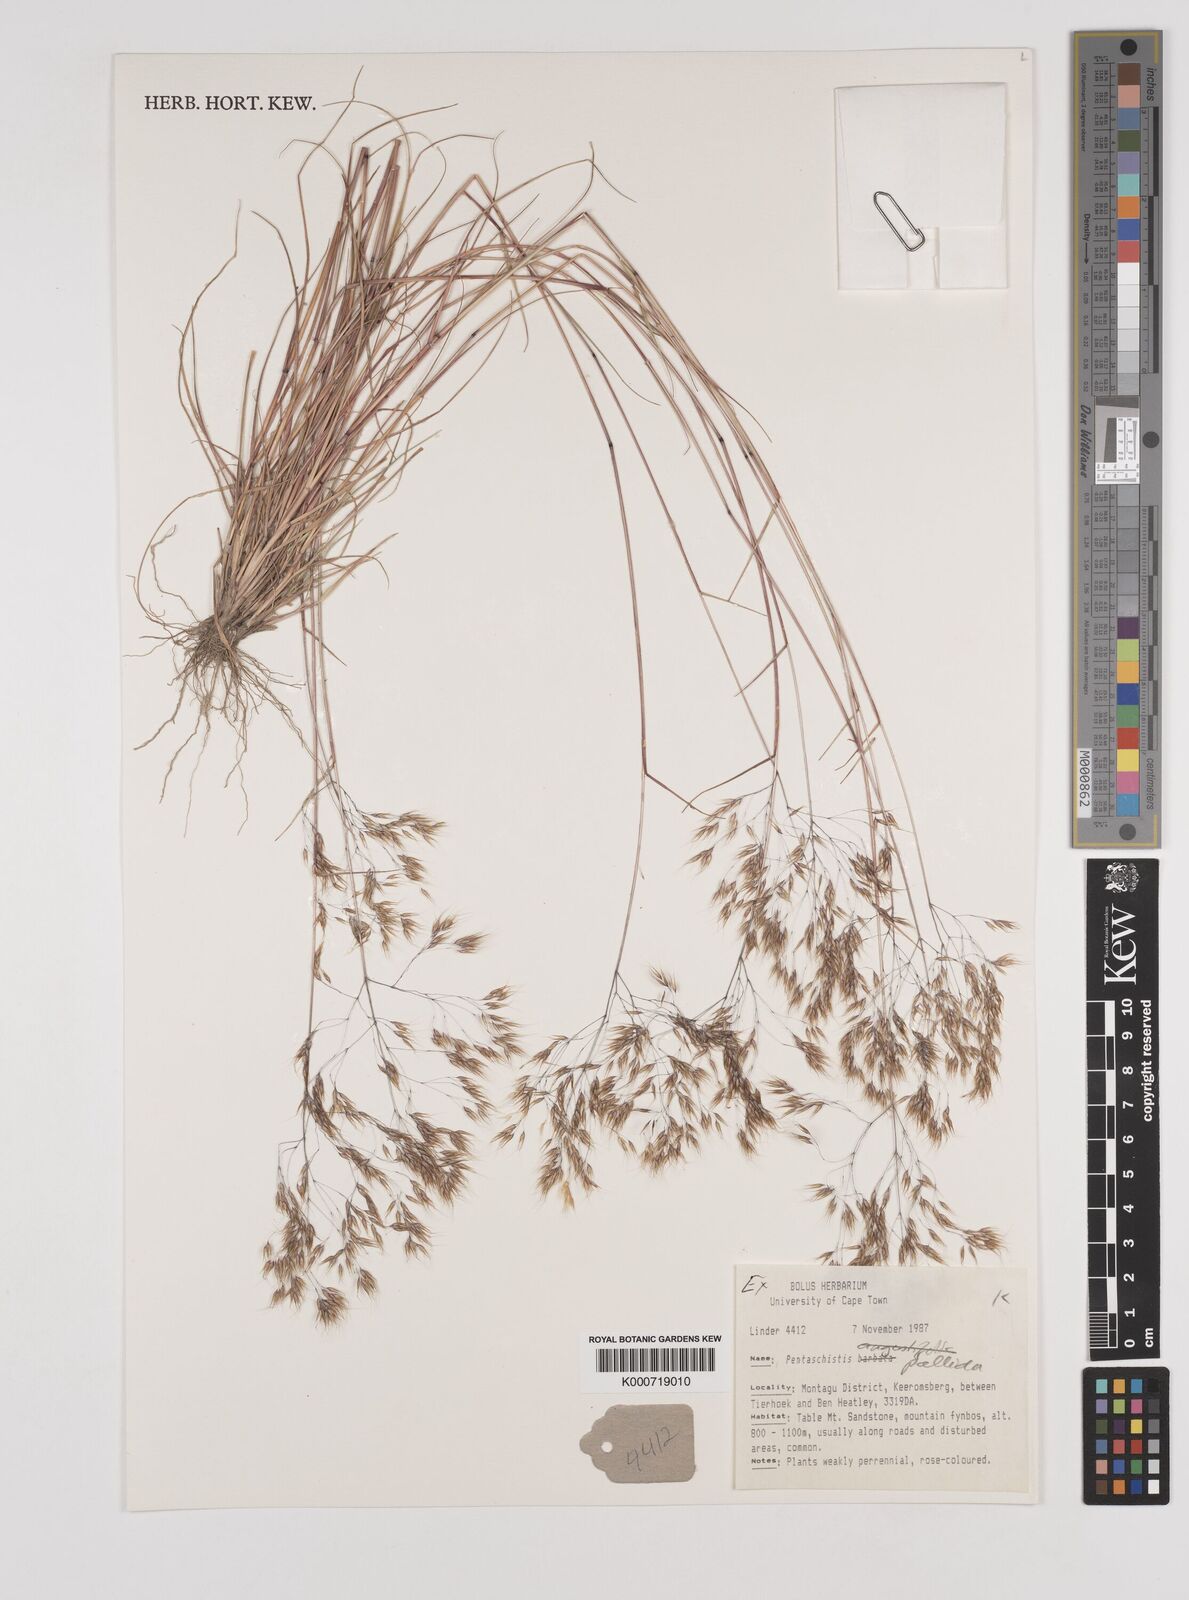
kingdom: Plantae
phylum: Tracheophyta
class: Liliopsida
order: Poales
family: Poaceae
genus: Pentameris
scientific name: Pentameris pallida
